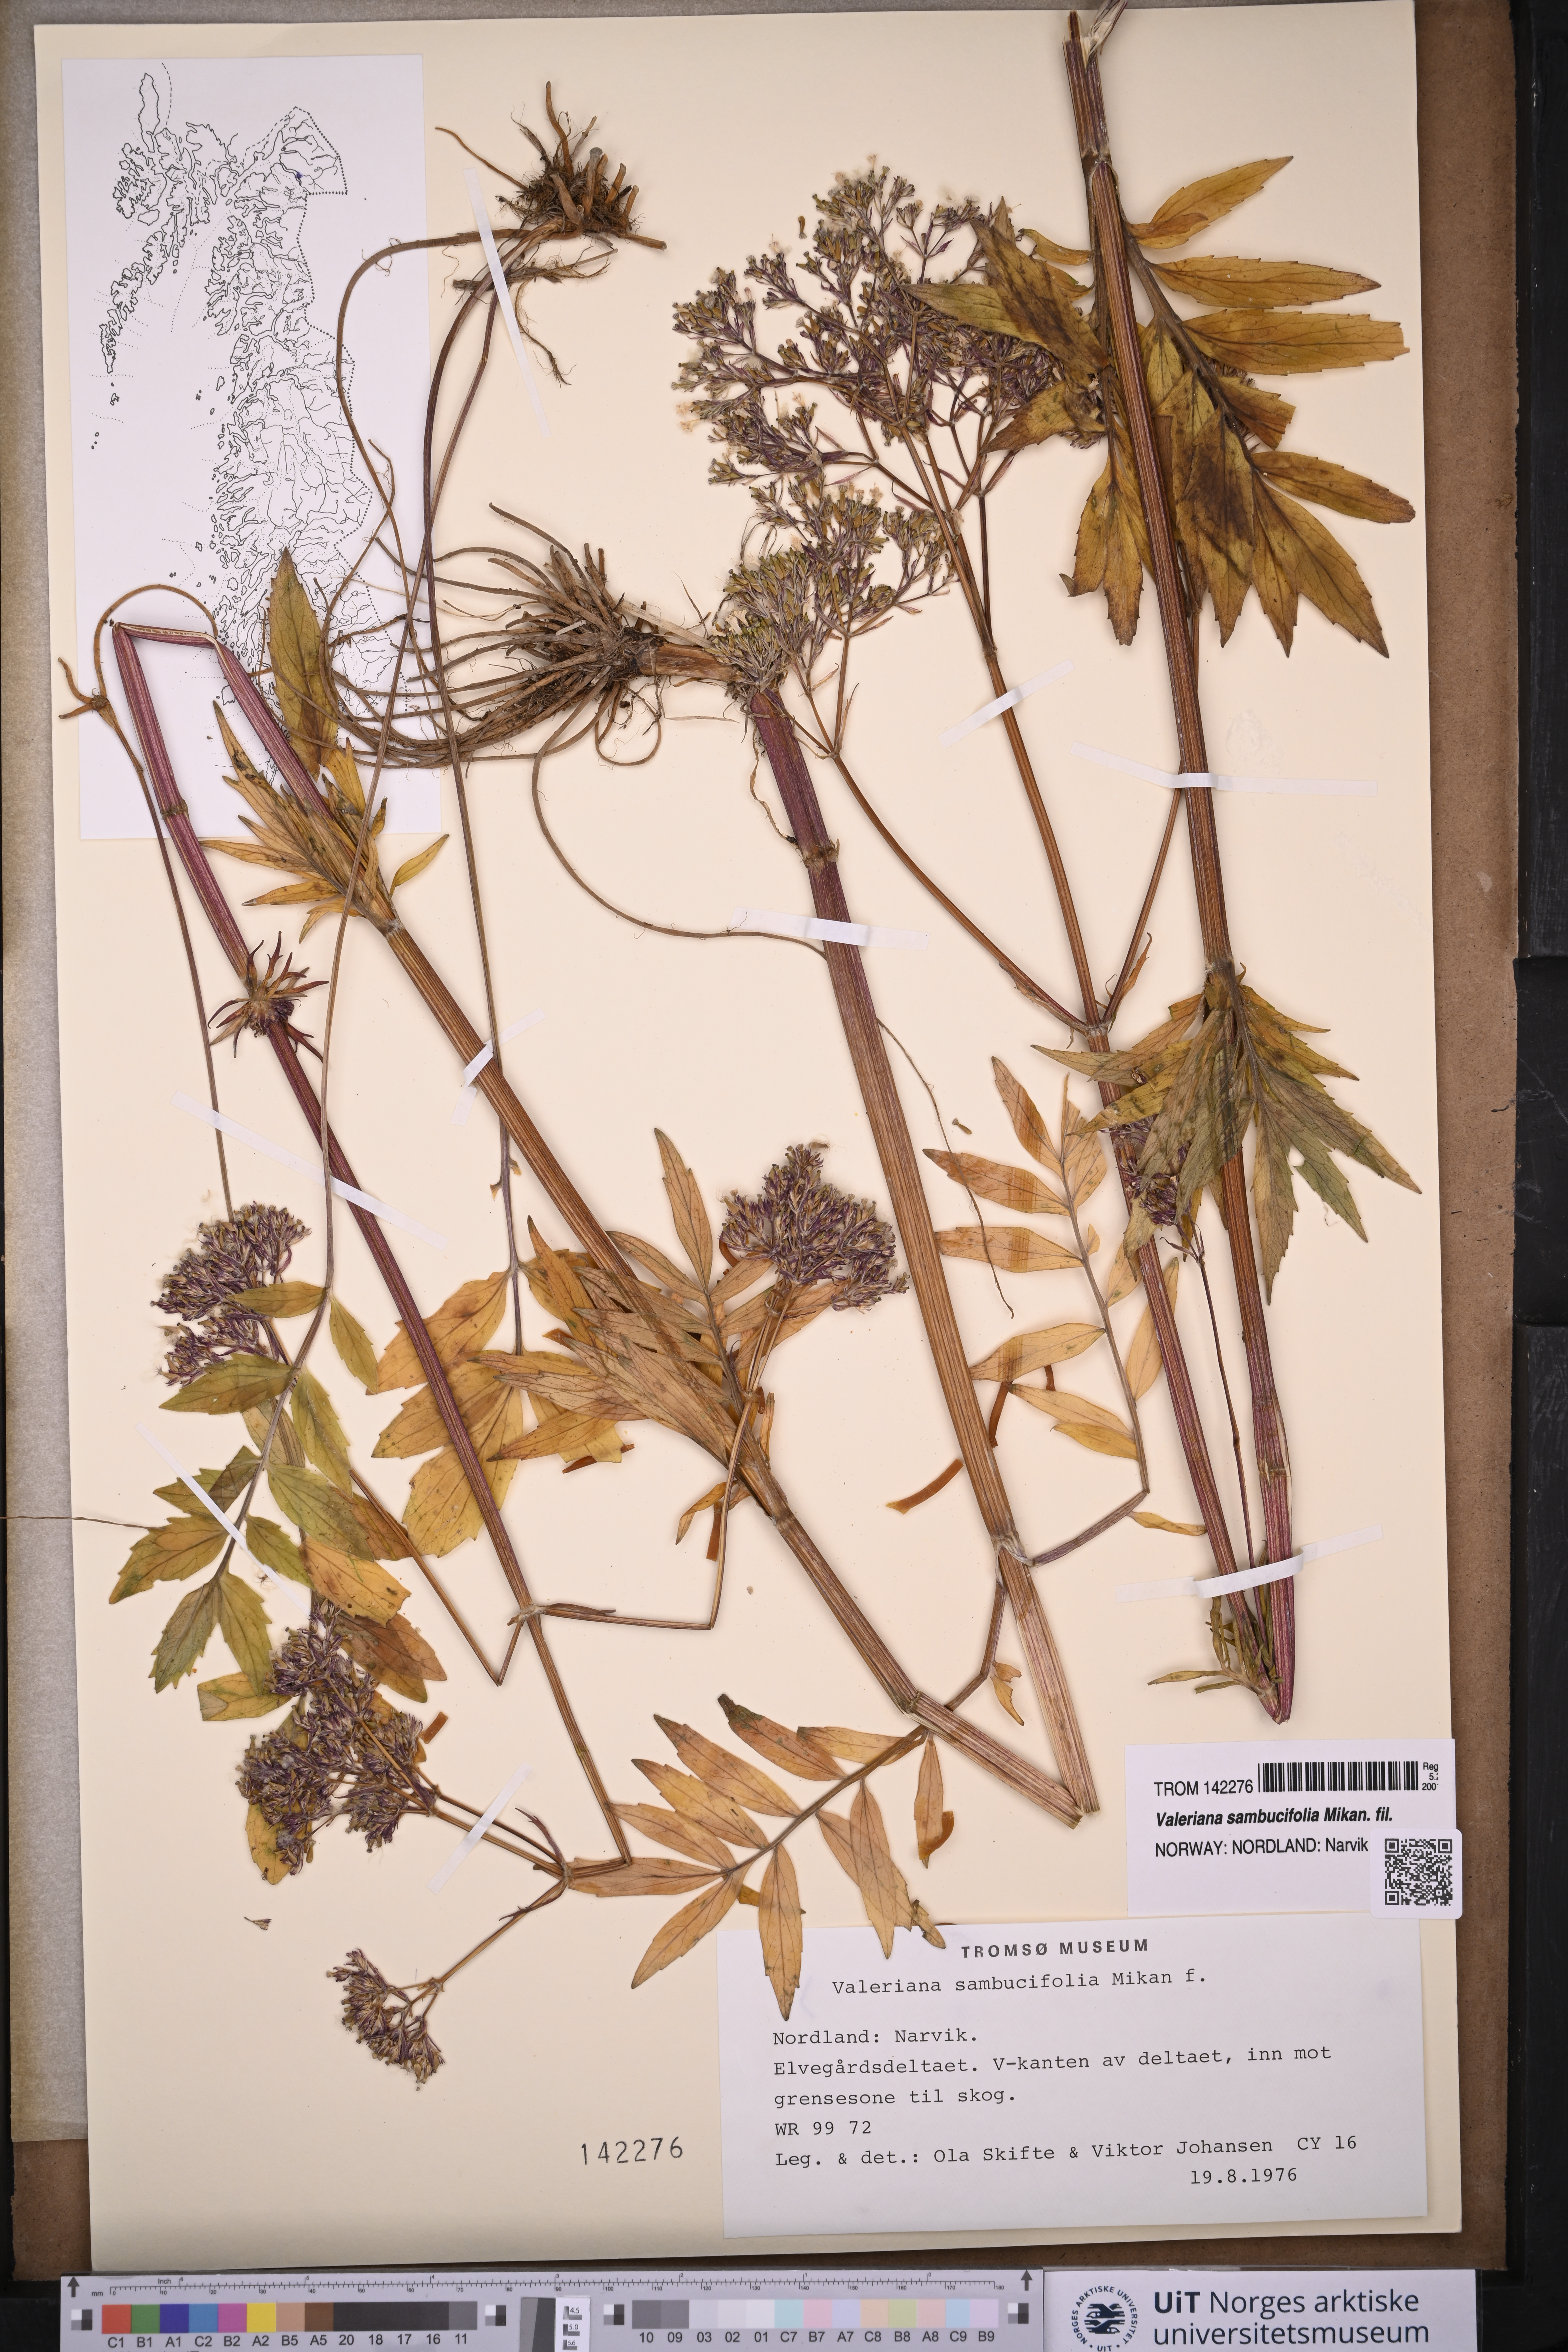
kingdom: Plantae
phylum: Tracheophyta
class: Magnoliopsida
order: Dipsacales
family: Caprifoliaceae
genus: Valeriana
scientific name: Valeriana excelsa
